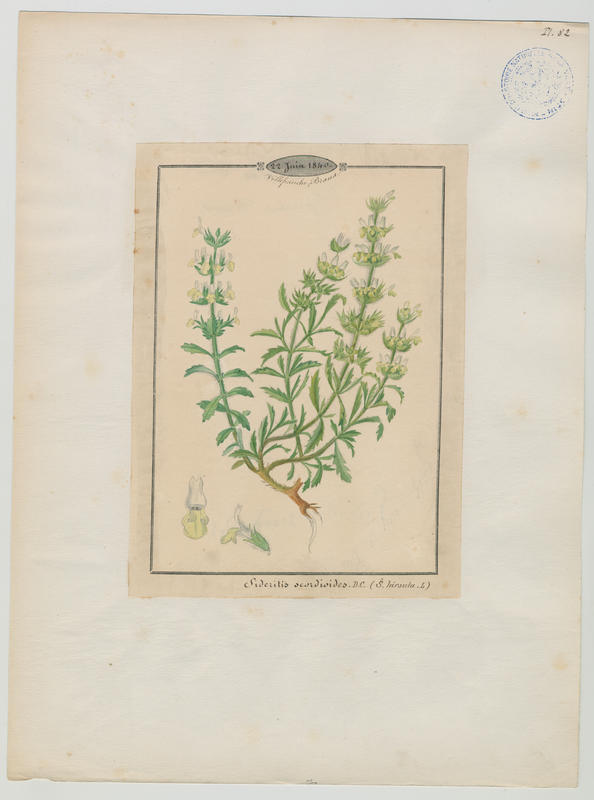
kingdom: Plantae
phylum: Tracheophyta
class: Magnoliopsida
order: Lamiales
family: Lamiaceae
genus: Sideritis
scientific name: Sideritis hyssopifolia
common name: Mountain tea
